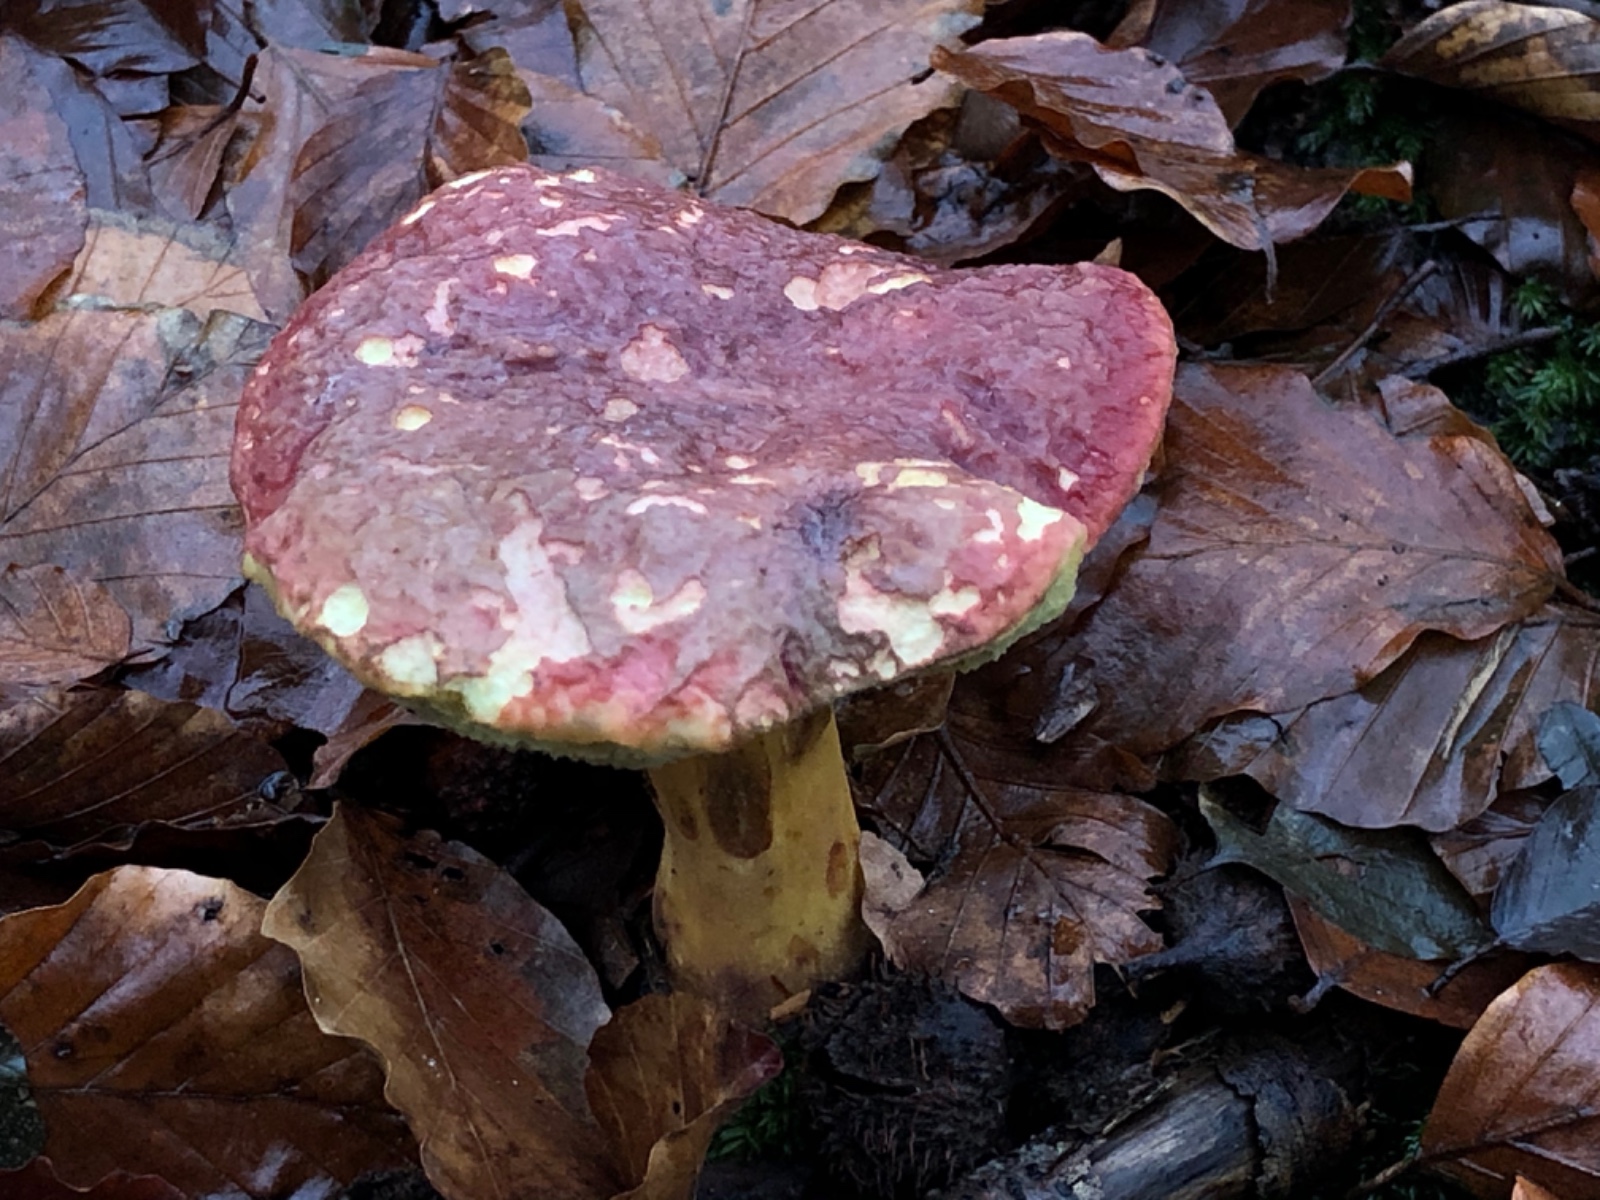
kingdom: Fungi
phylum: Basidiomycota
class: Agaricomycetes
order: Boletales
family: Boletaceae
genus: Xerocomellus
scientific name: Xerocomellus pruinatus
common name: dugget rørhat
